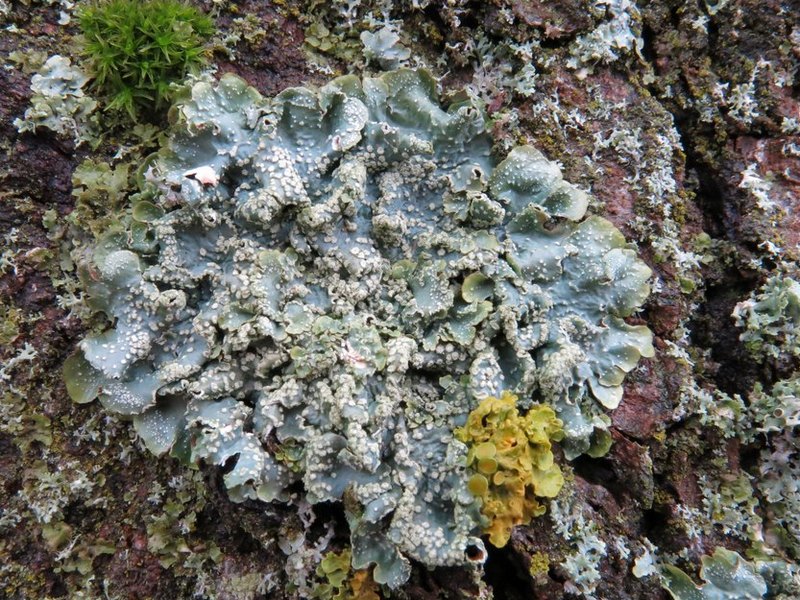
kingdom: Fungi
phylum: Ascomycota
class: Lecanoromycetes
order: Lecanorales
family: Parmeliaceae
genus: Punctelia
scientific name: Punctelia subrudecta
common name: punkt-skållav
